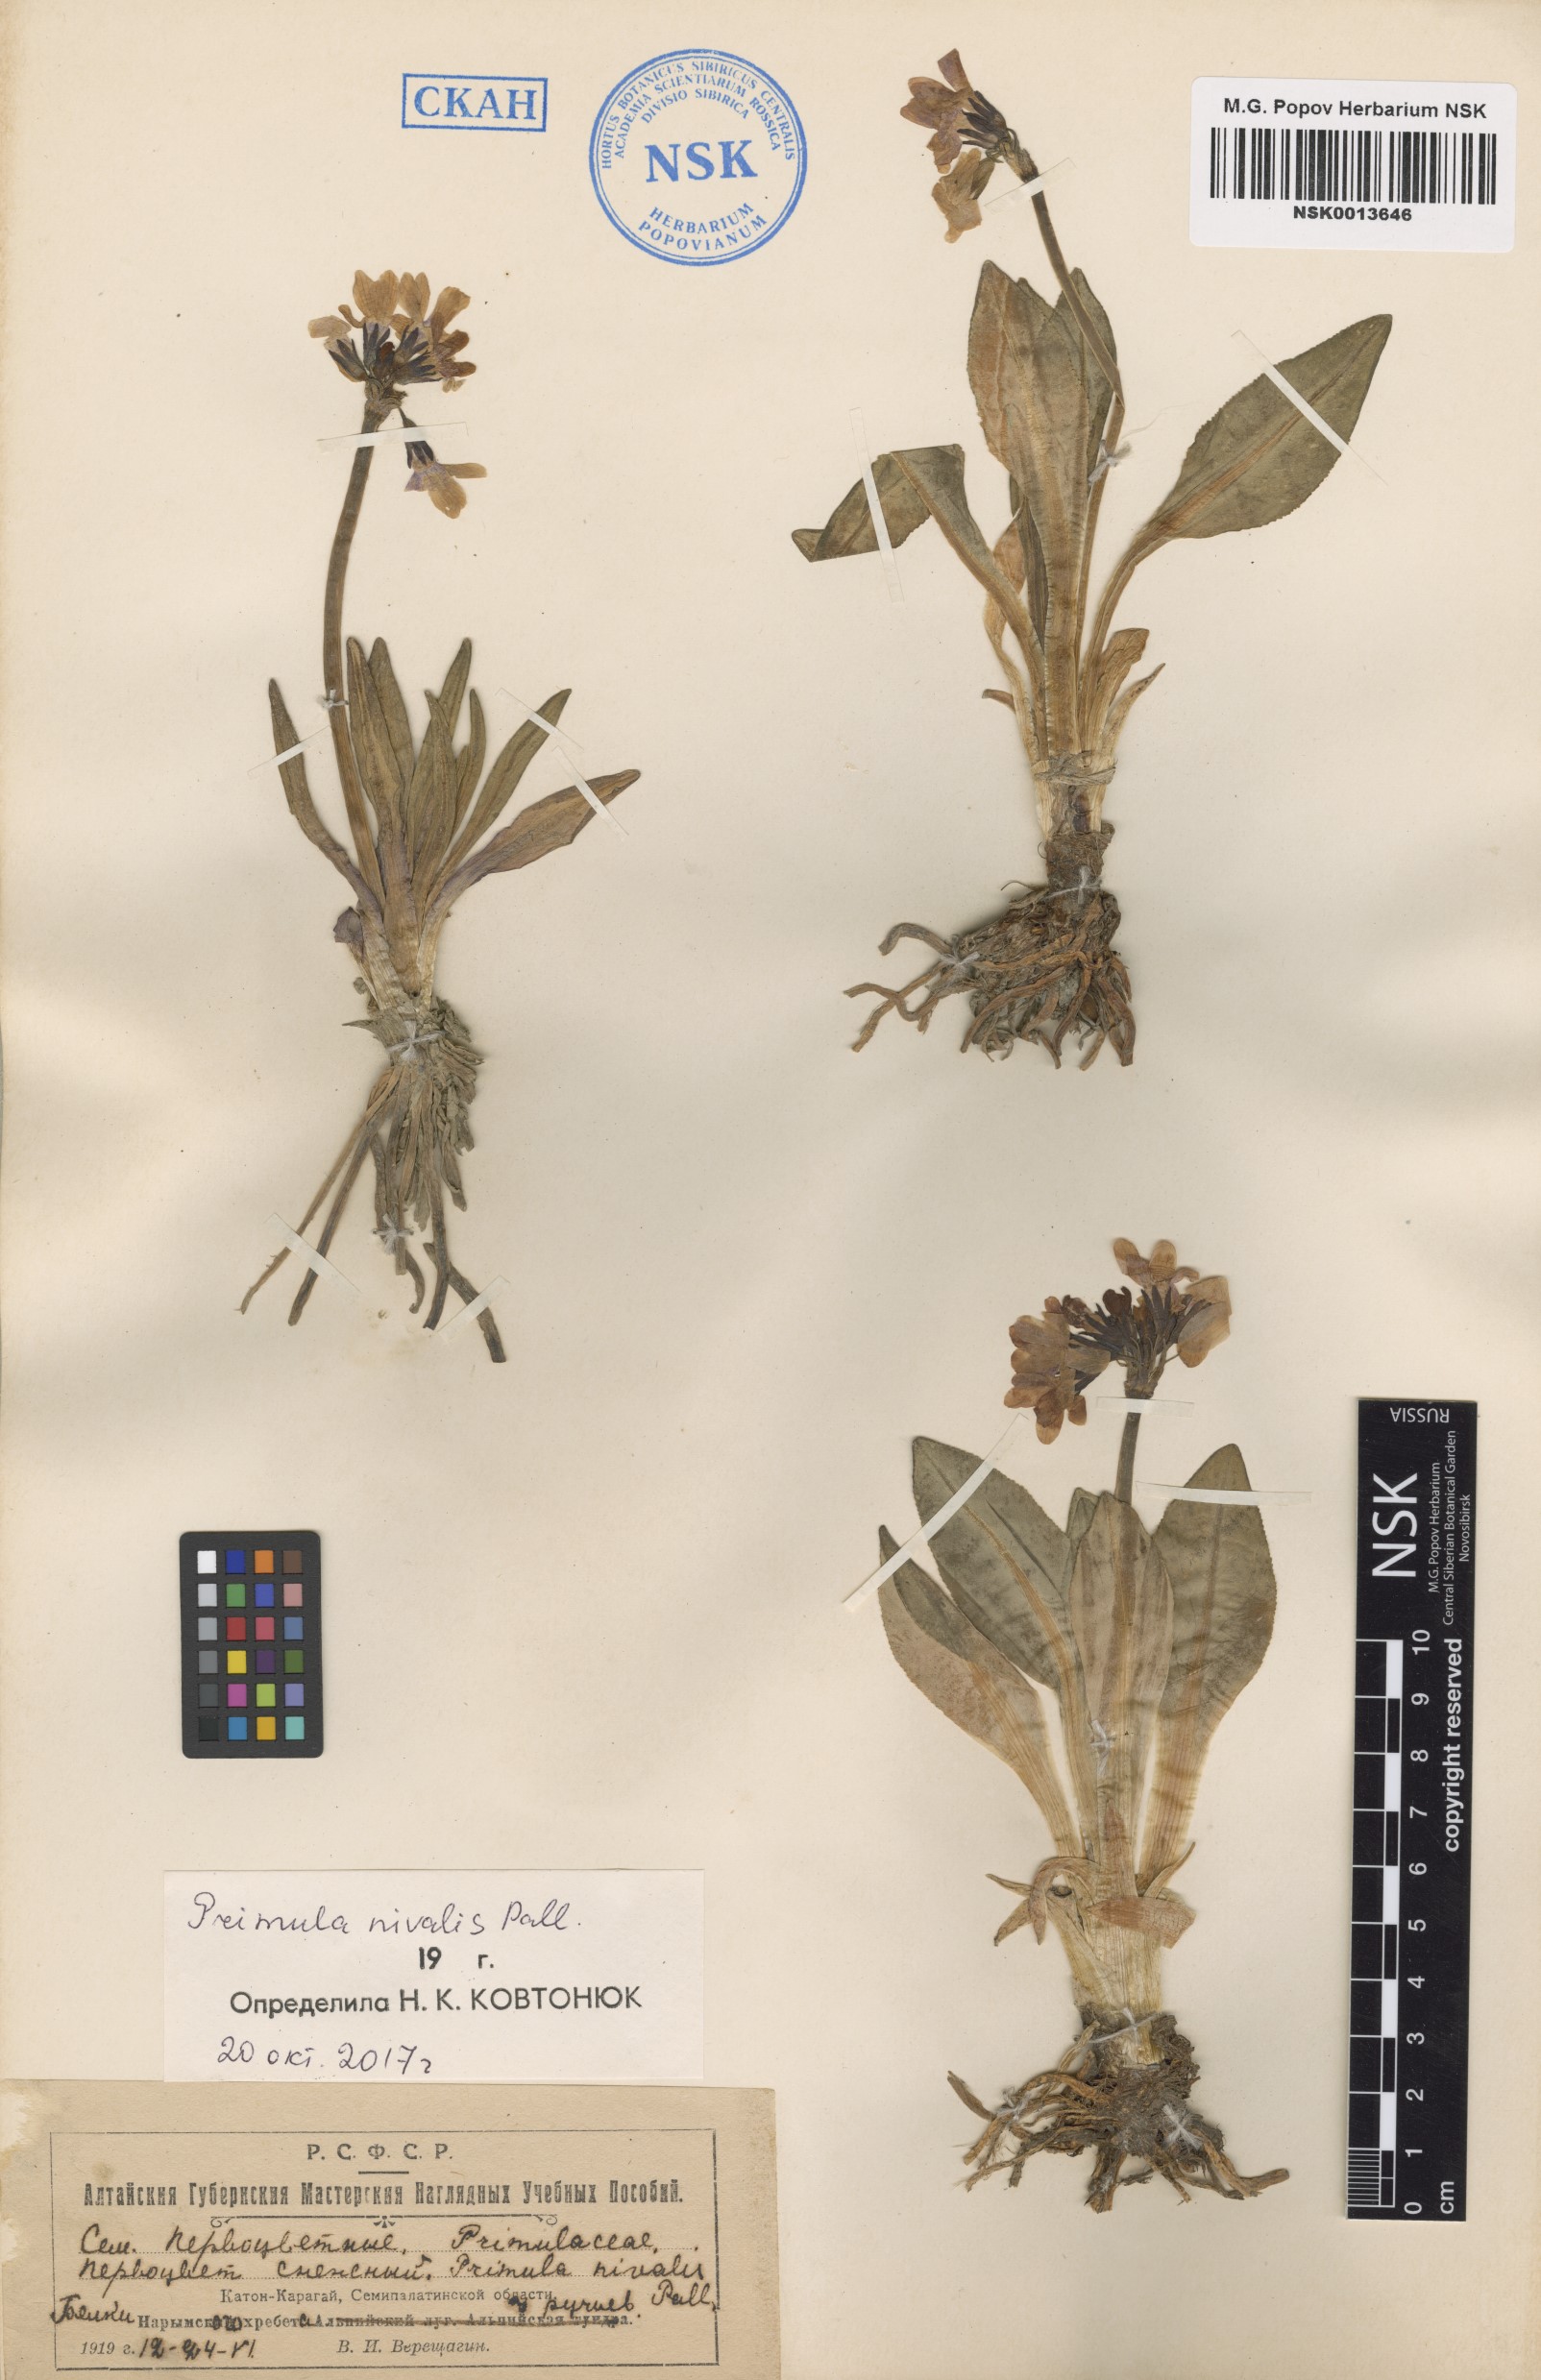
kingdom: Plantae
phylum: Tracheophyta
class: Magnoliopsida
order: Ericales
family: Primulaceae
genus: Primula
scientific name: Primula nivalis
